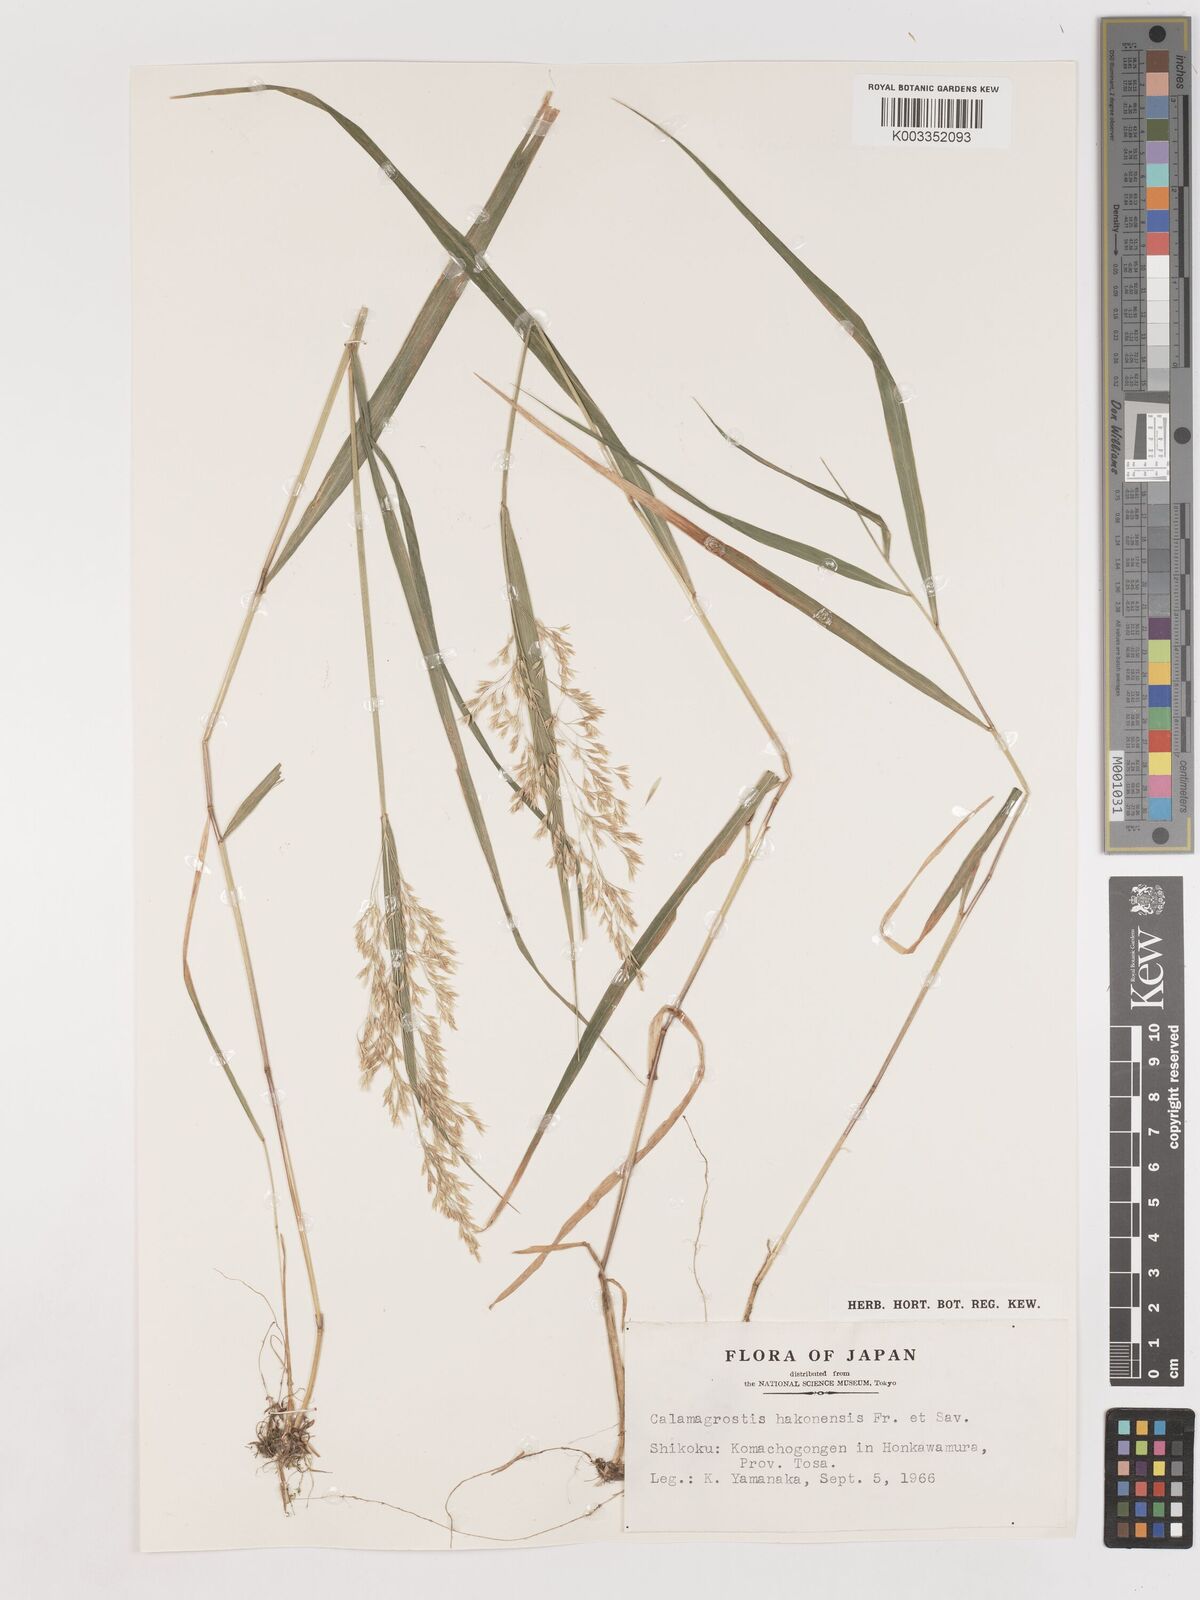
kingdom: Plantae
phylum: Tracheophyta
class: Liliopsida
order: Poales
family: Poaceae
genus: Calamagrostis
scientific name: Calamagrostis hakonensis
